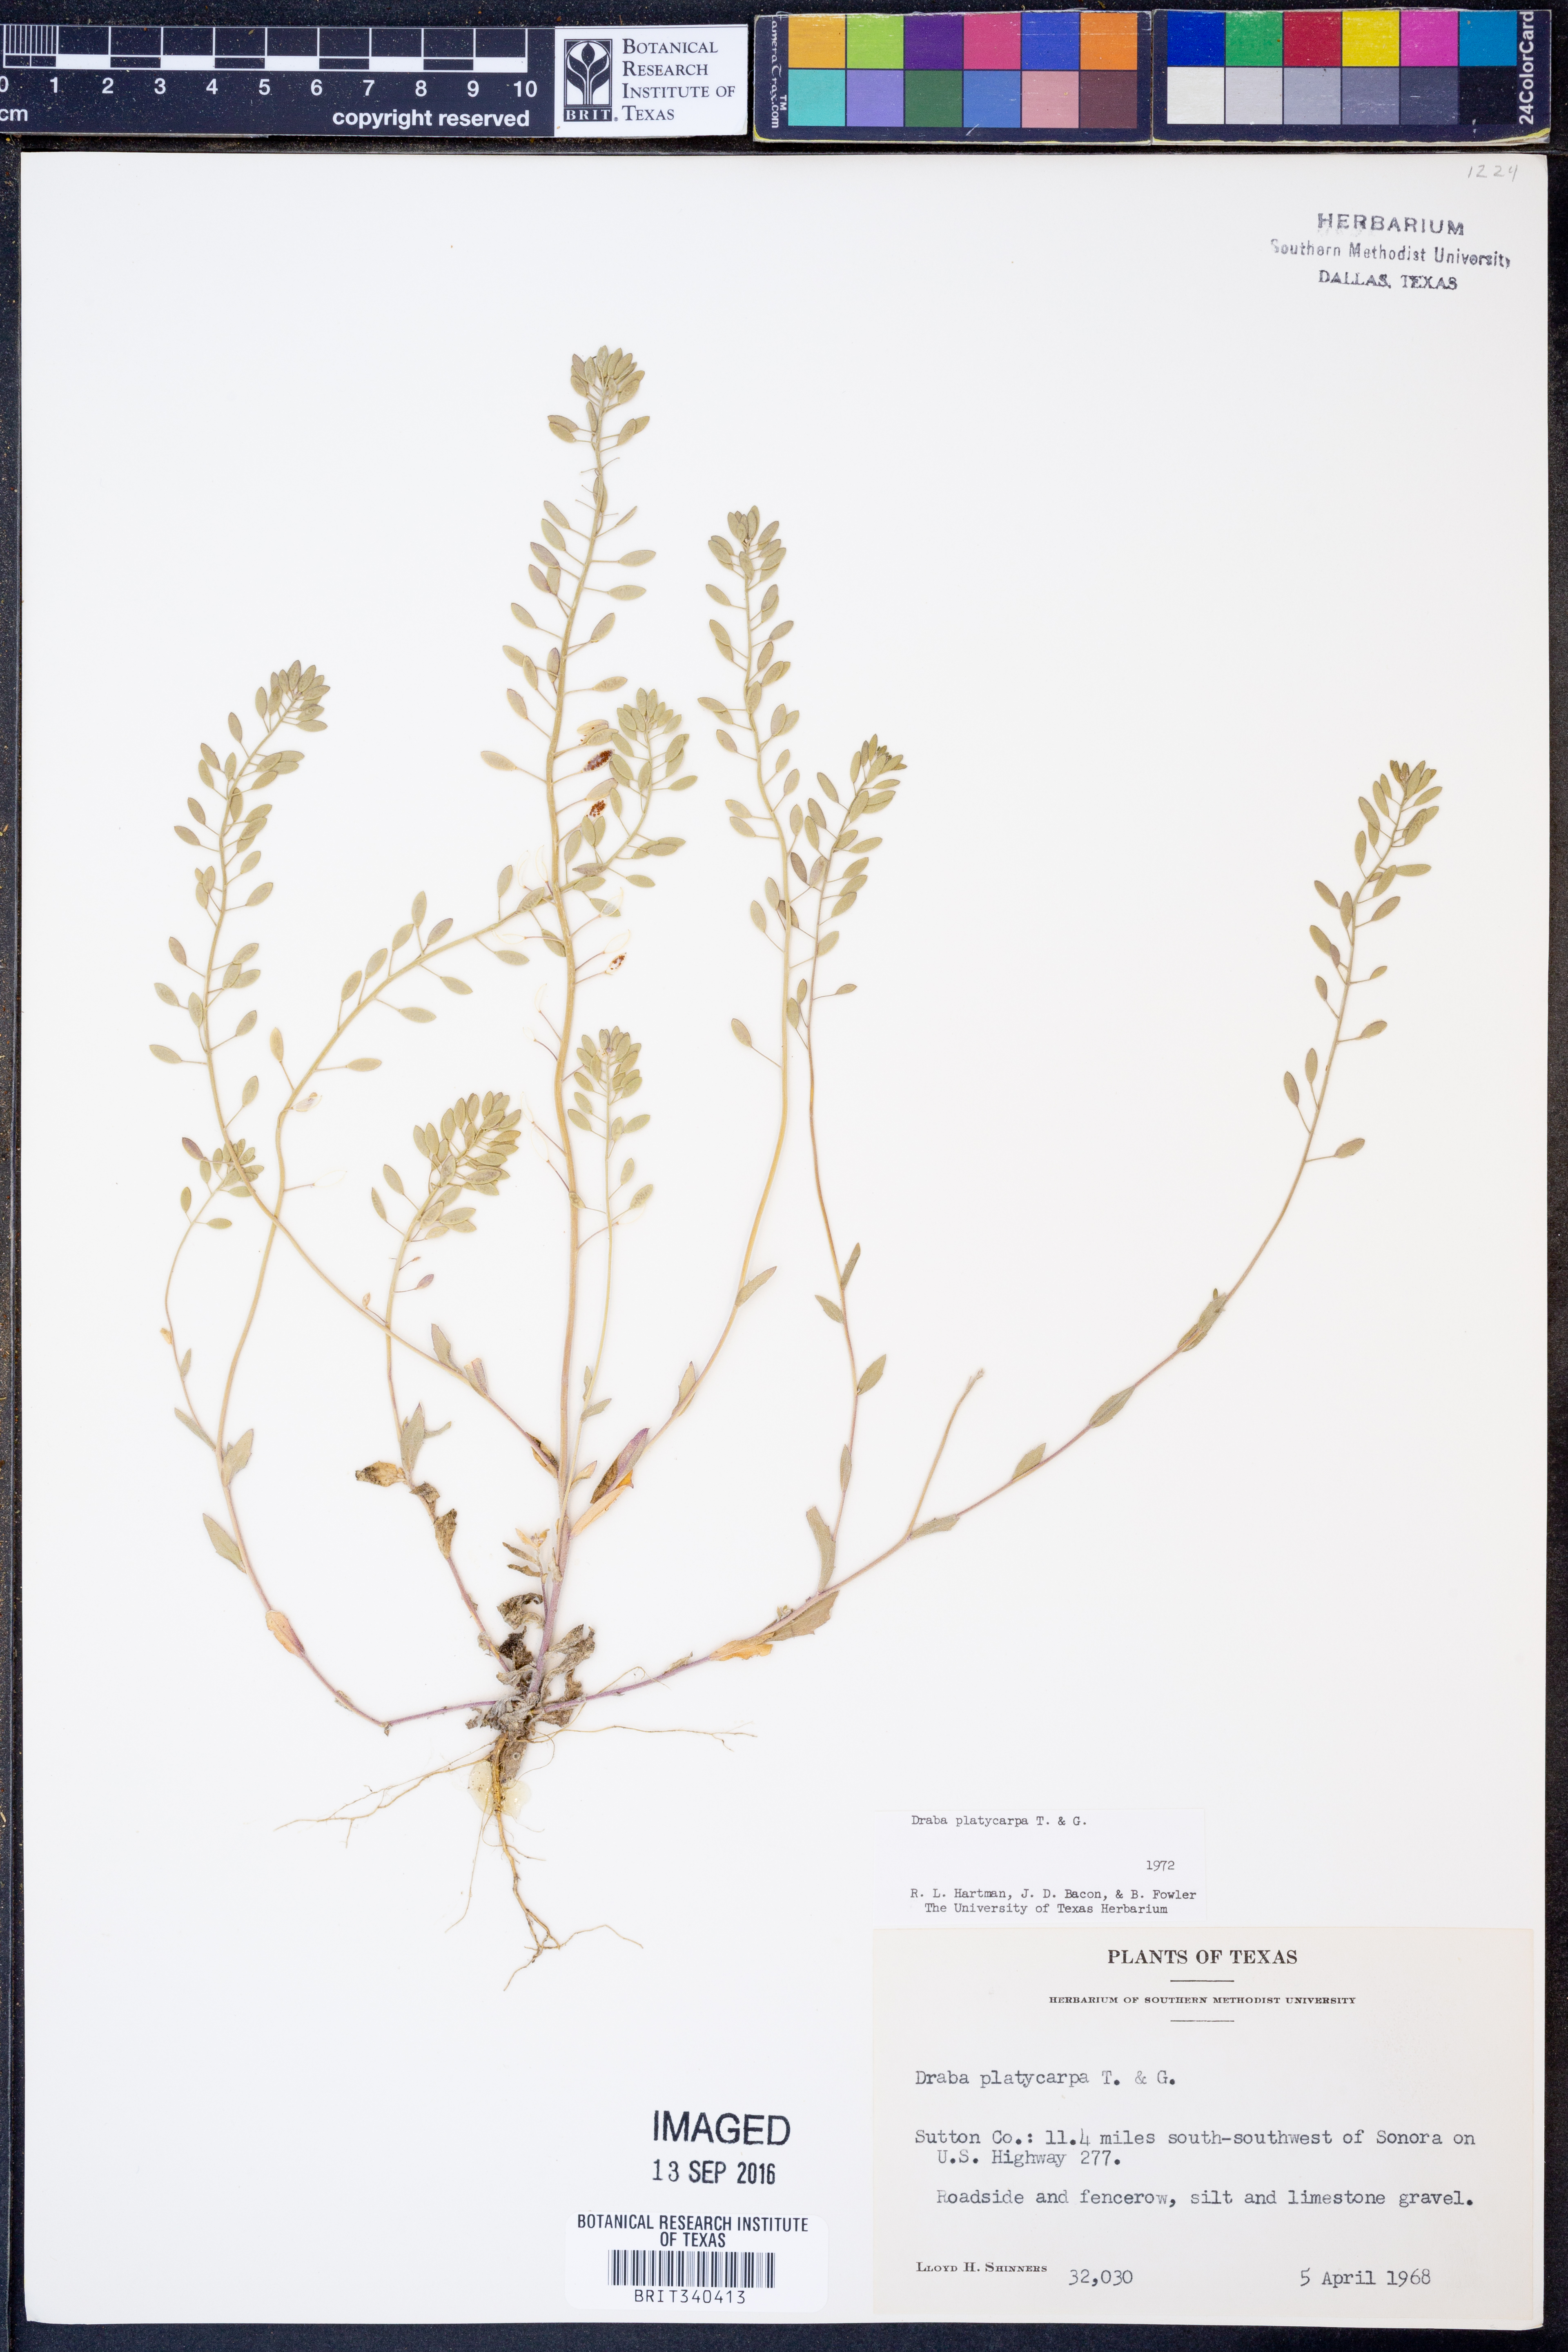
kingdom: Plantae
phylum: Tracheophyta
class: Magnoliopsida
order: Brassicales
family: Brassicaceae
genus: Tomostima
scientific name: Tomostima platycarpa
